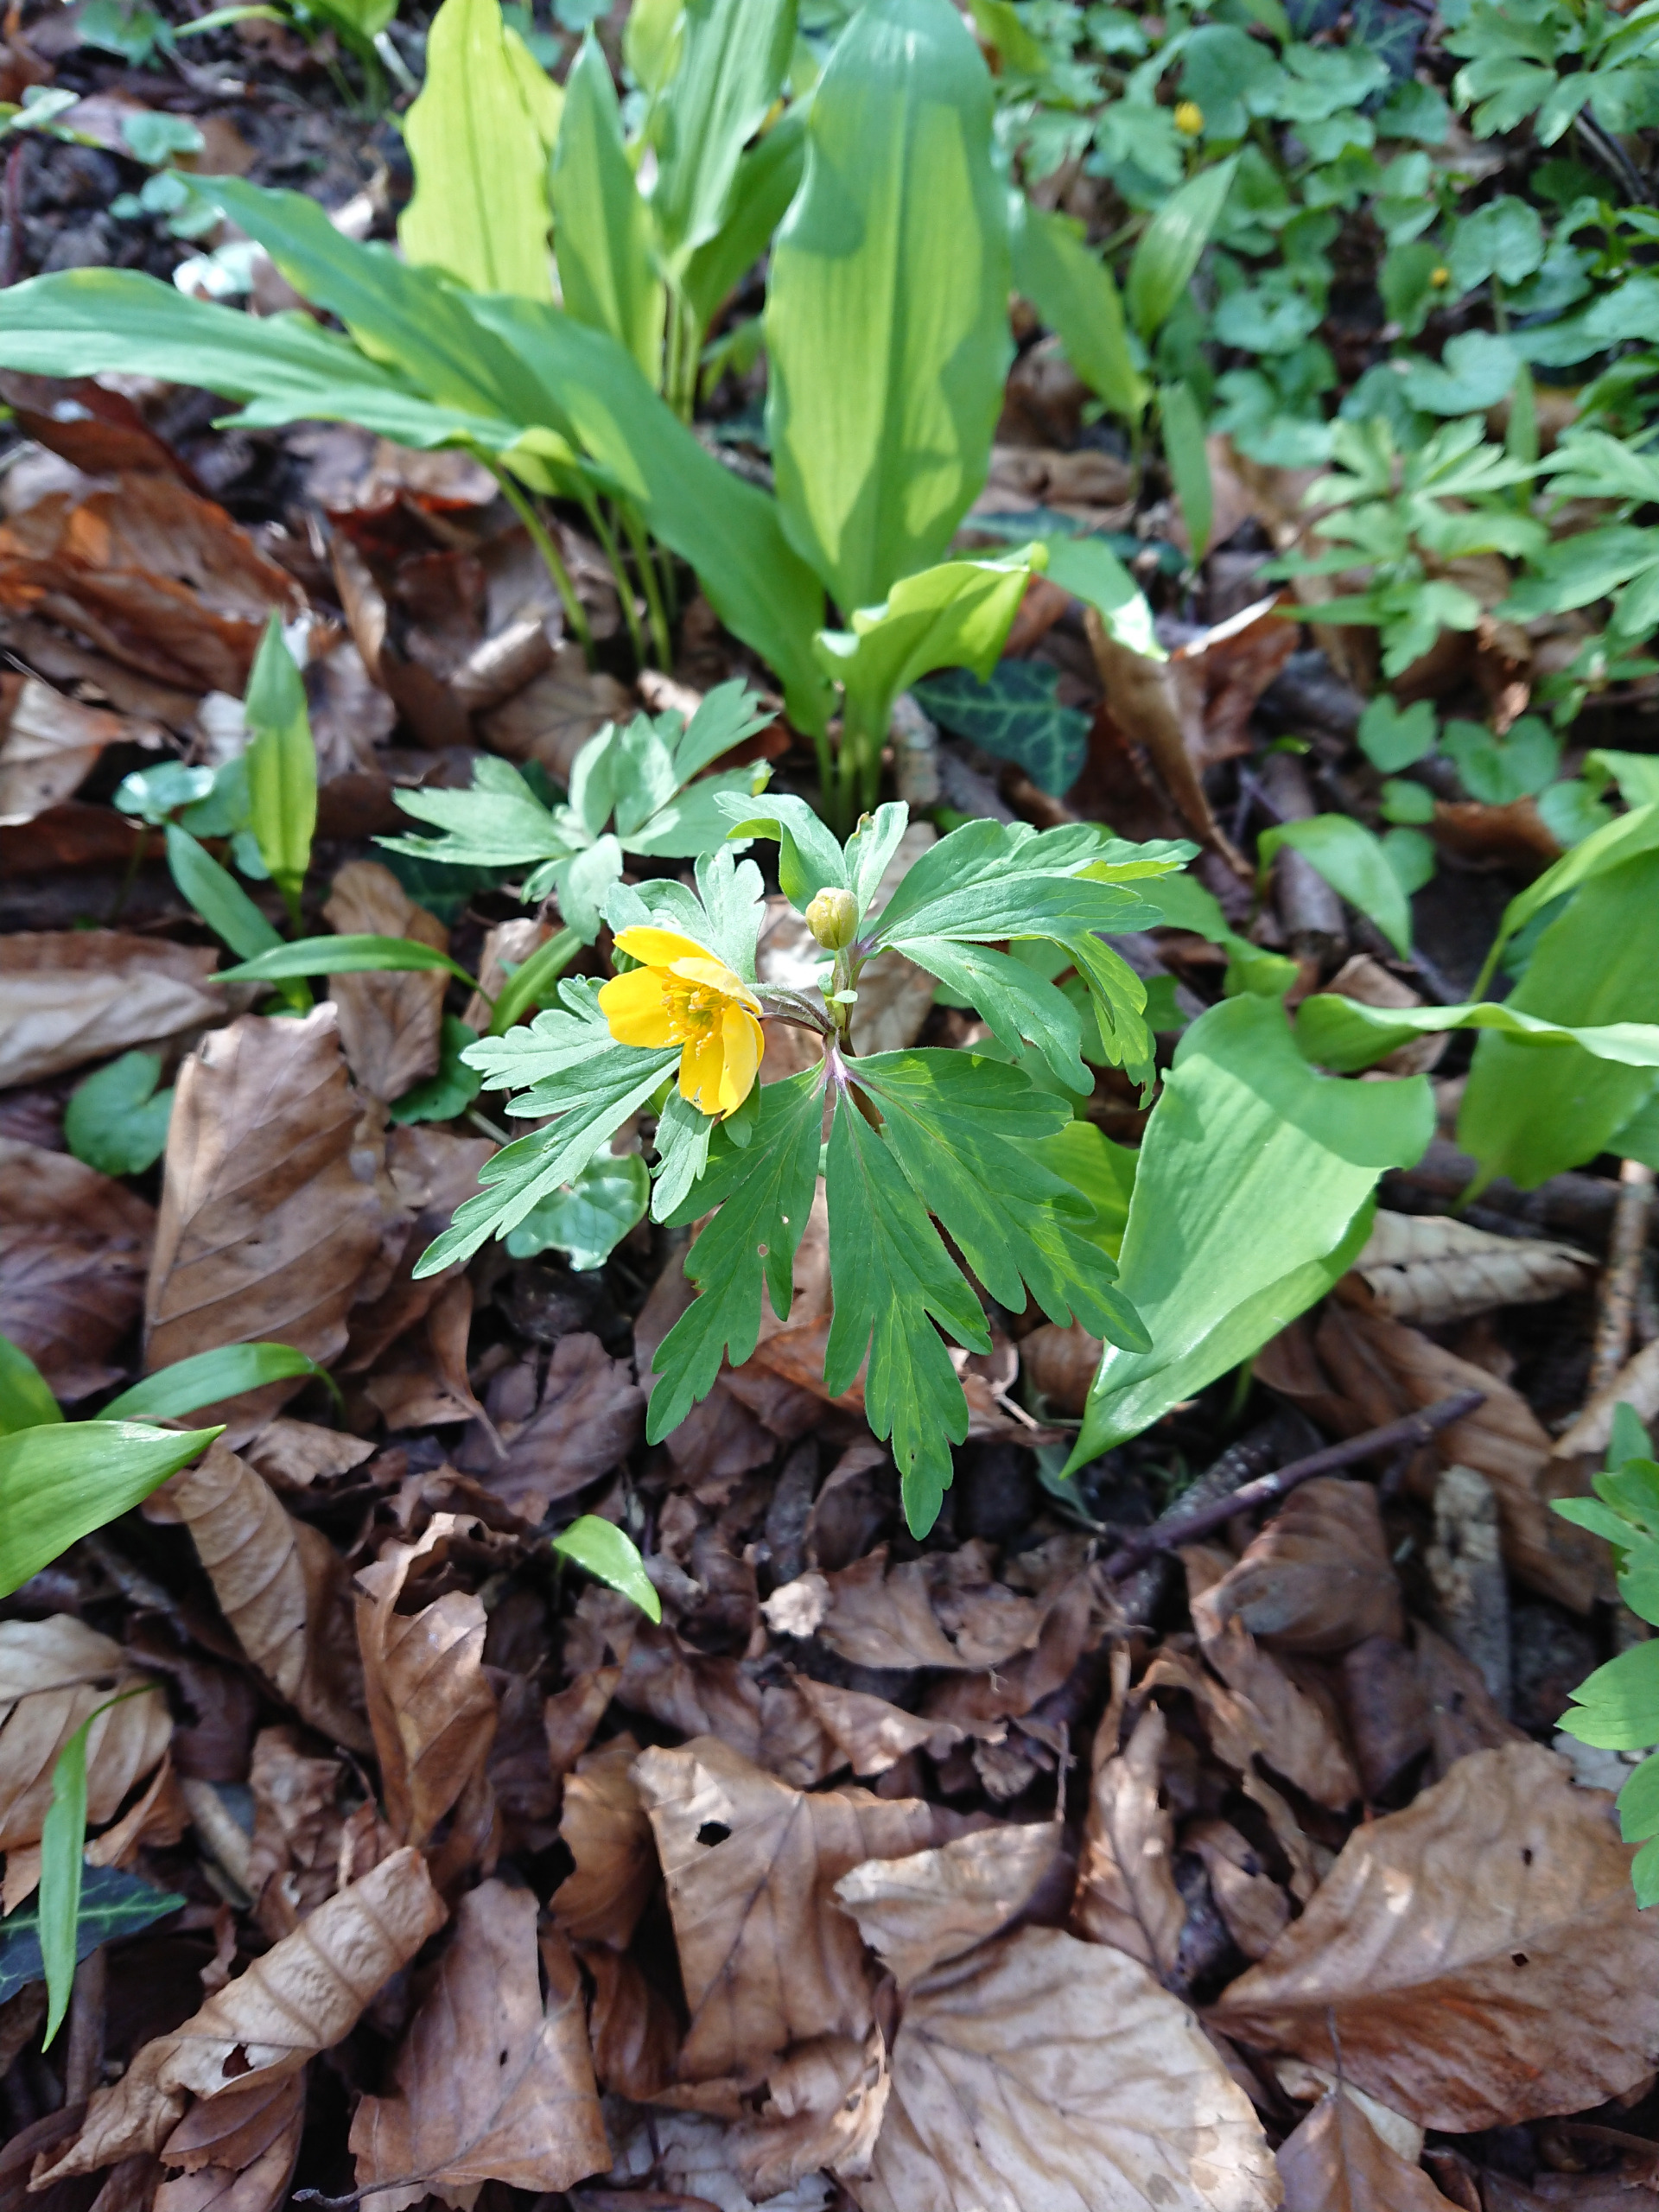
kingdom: Plantae
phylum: Tracheophyta
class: Magnoliopsida
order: Ranunculales
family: Ranunculaceae
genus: Anemone
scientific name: Anemone ranunculoides
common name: Gul anemone
